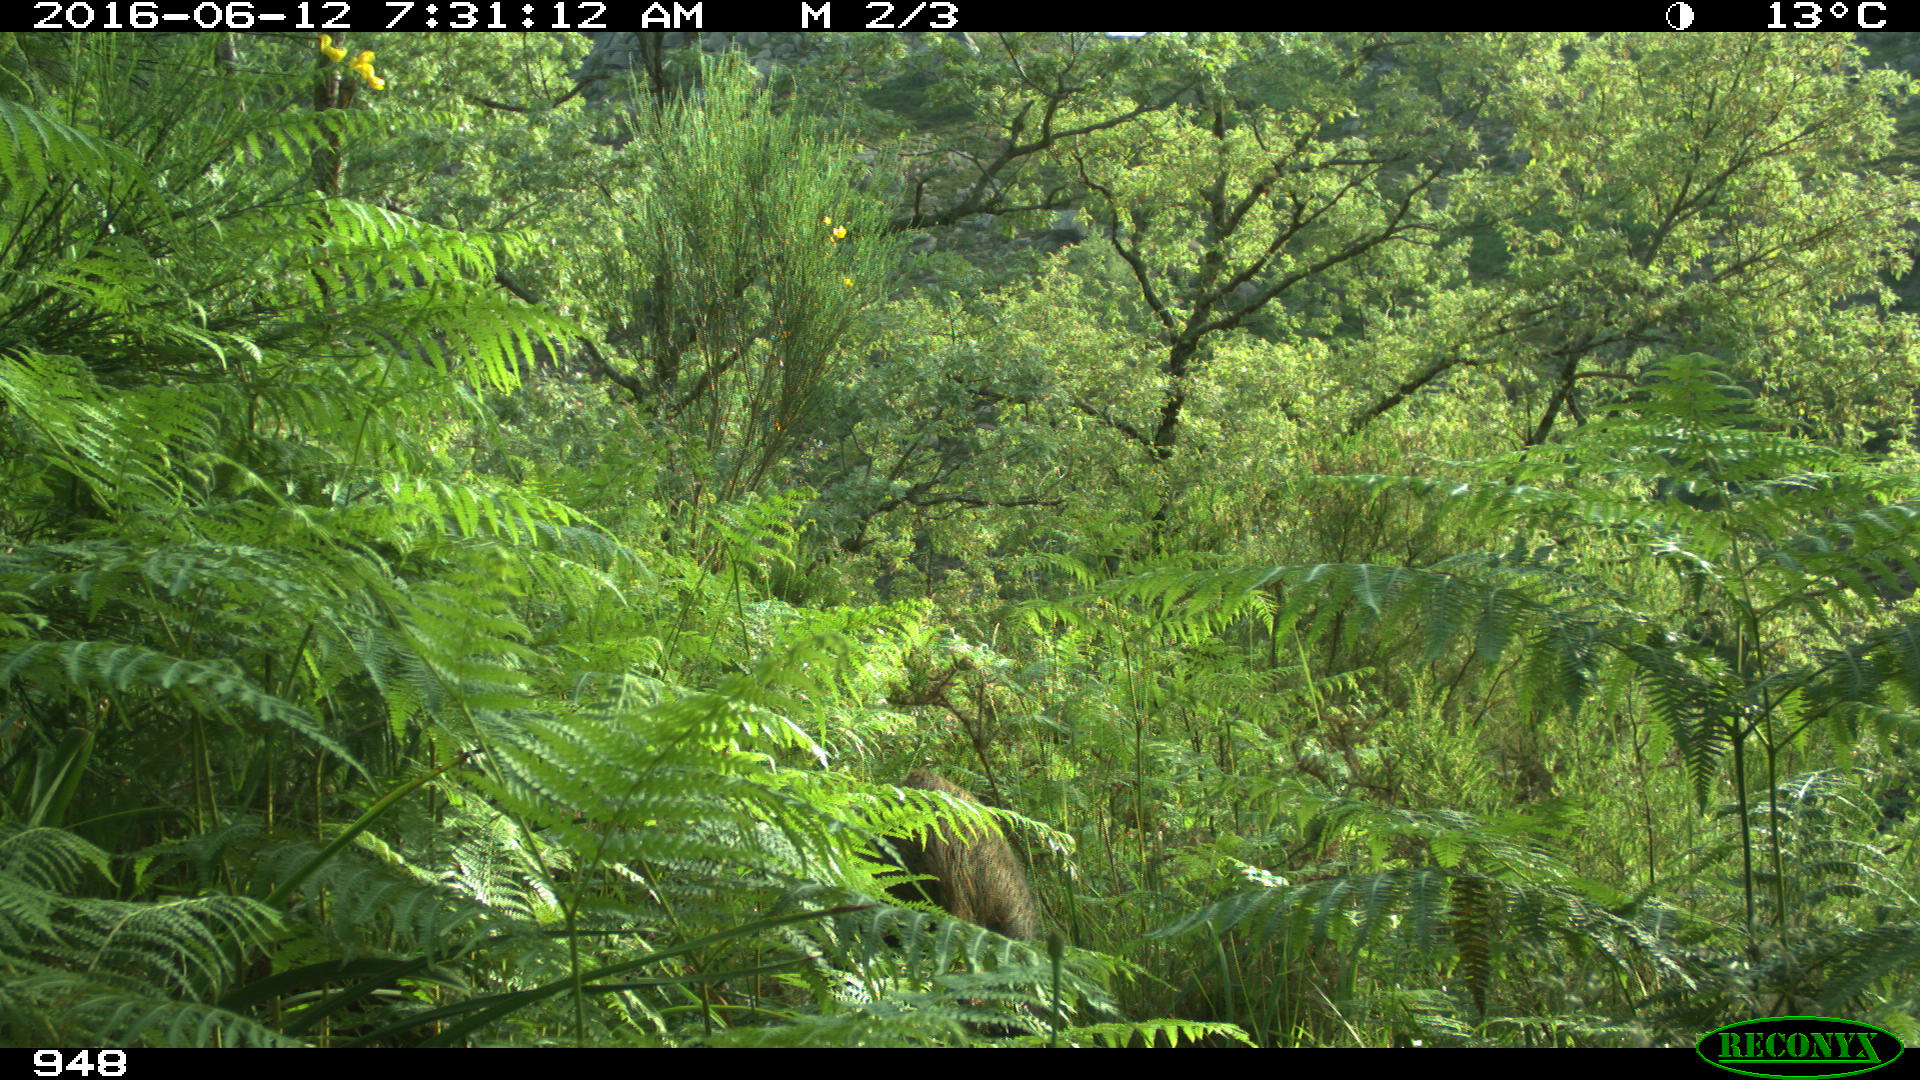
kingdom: Animalia
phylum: Chordata
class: Mammalia
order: Artiodactyla
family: Suidae
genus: Sus
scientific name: Sus scrofa
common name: Wild boar
